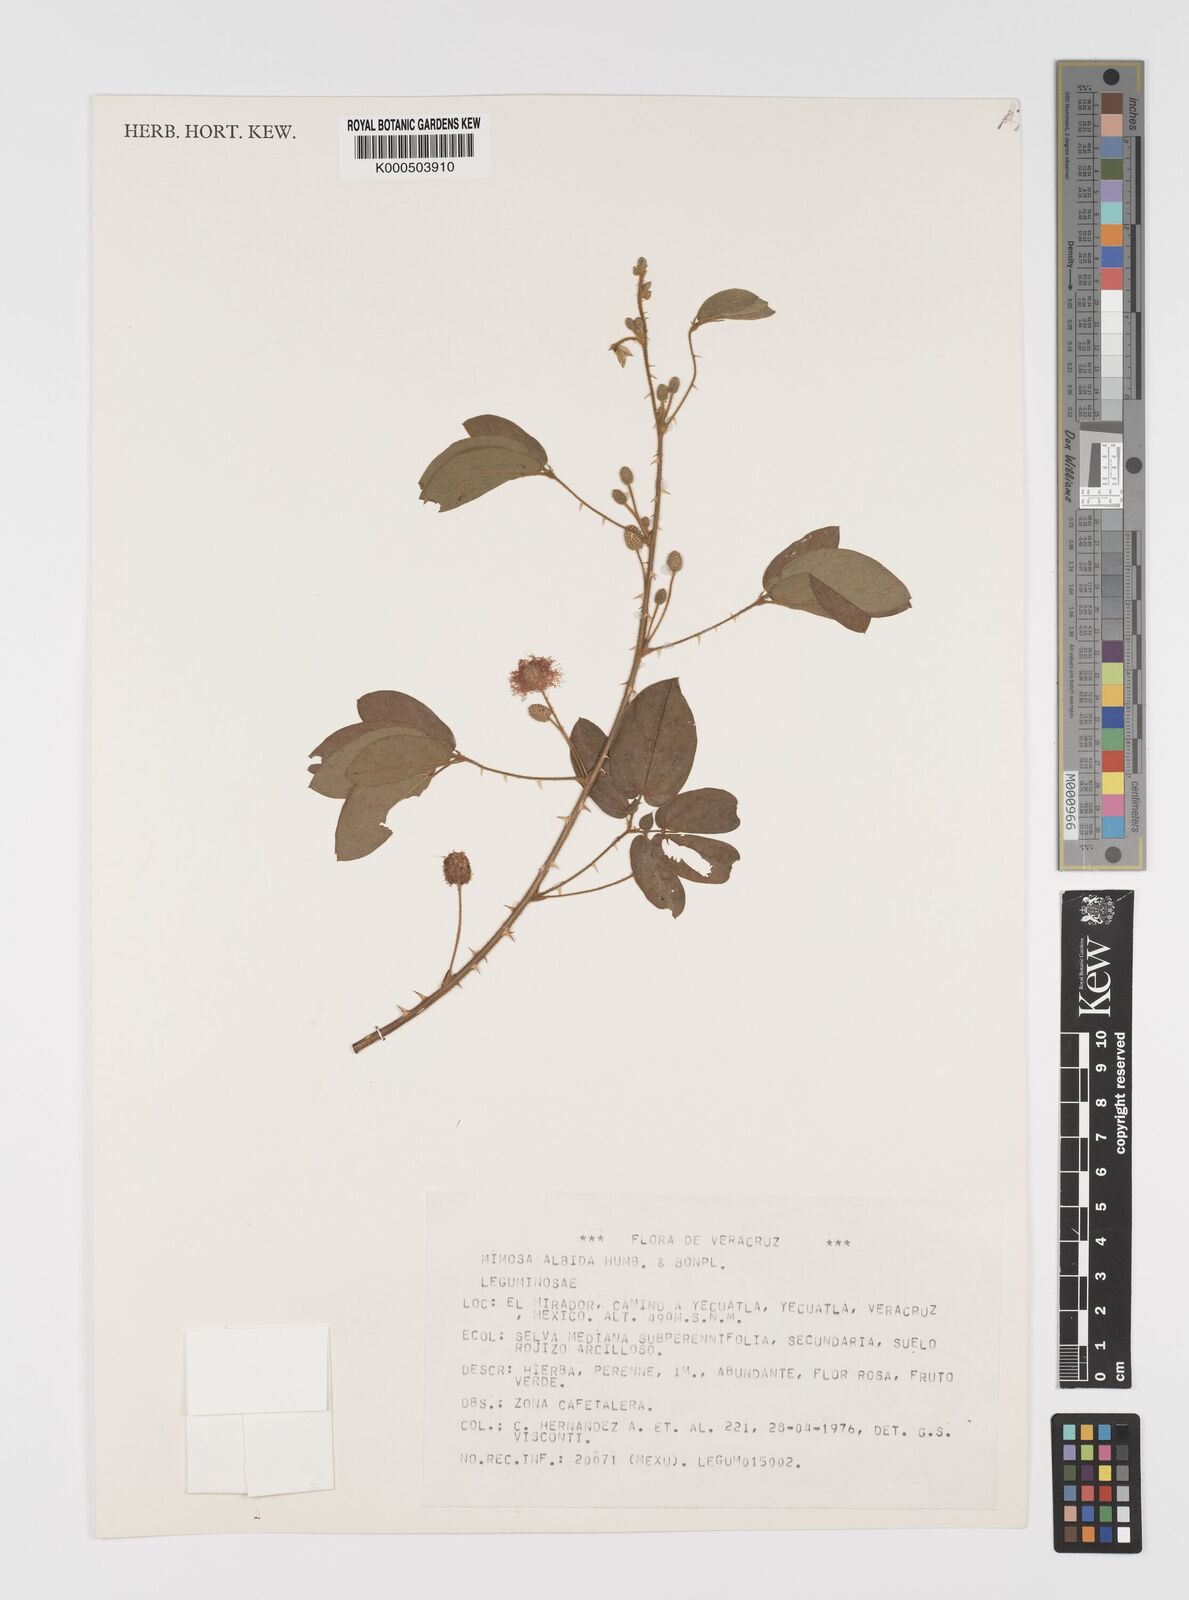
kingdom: Plantae
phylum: Tracheophyta
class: Magnoliopsida
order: Fabales
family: Fabaceae
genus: Mimosa
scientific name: Mimosa albida
